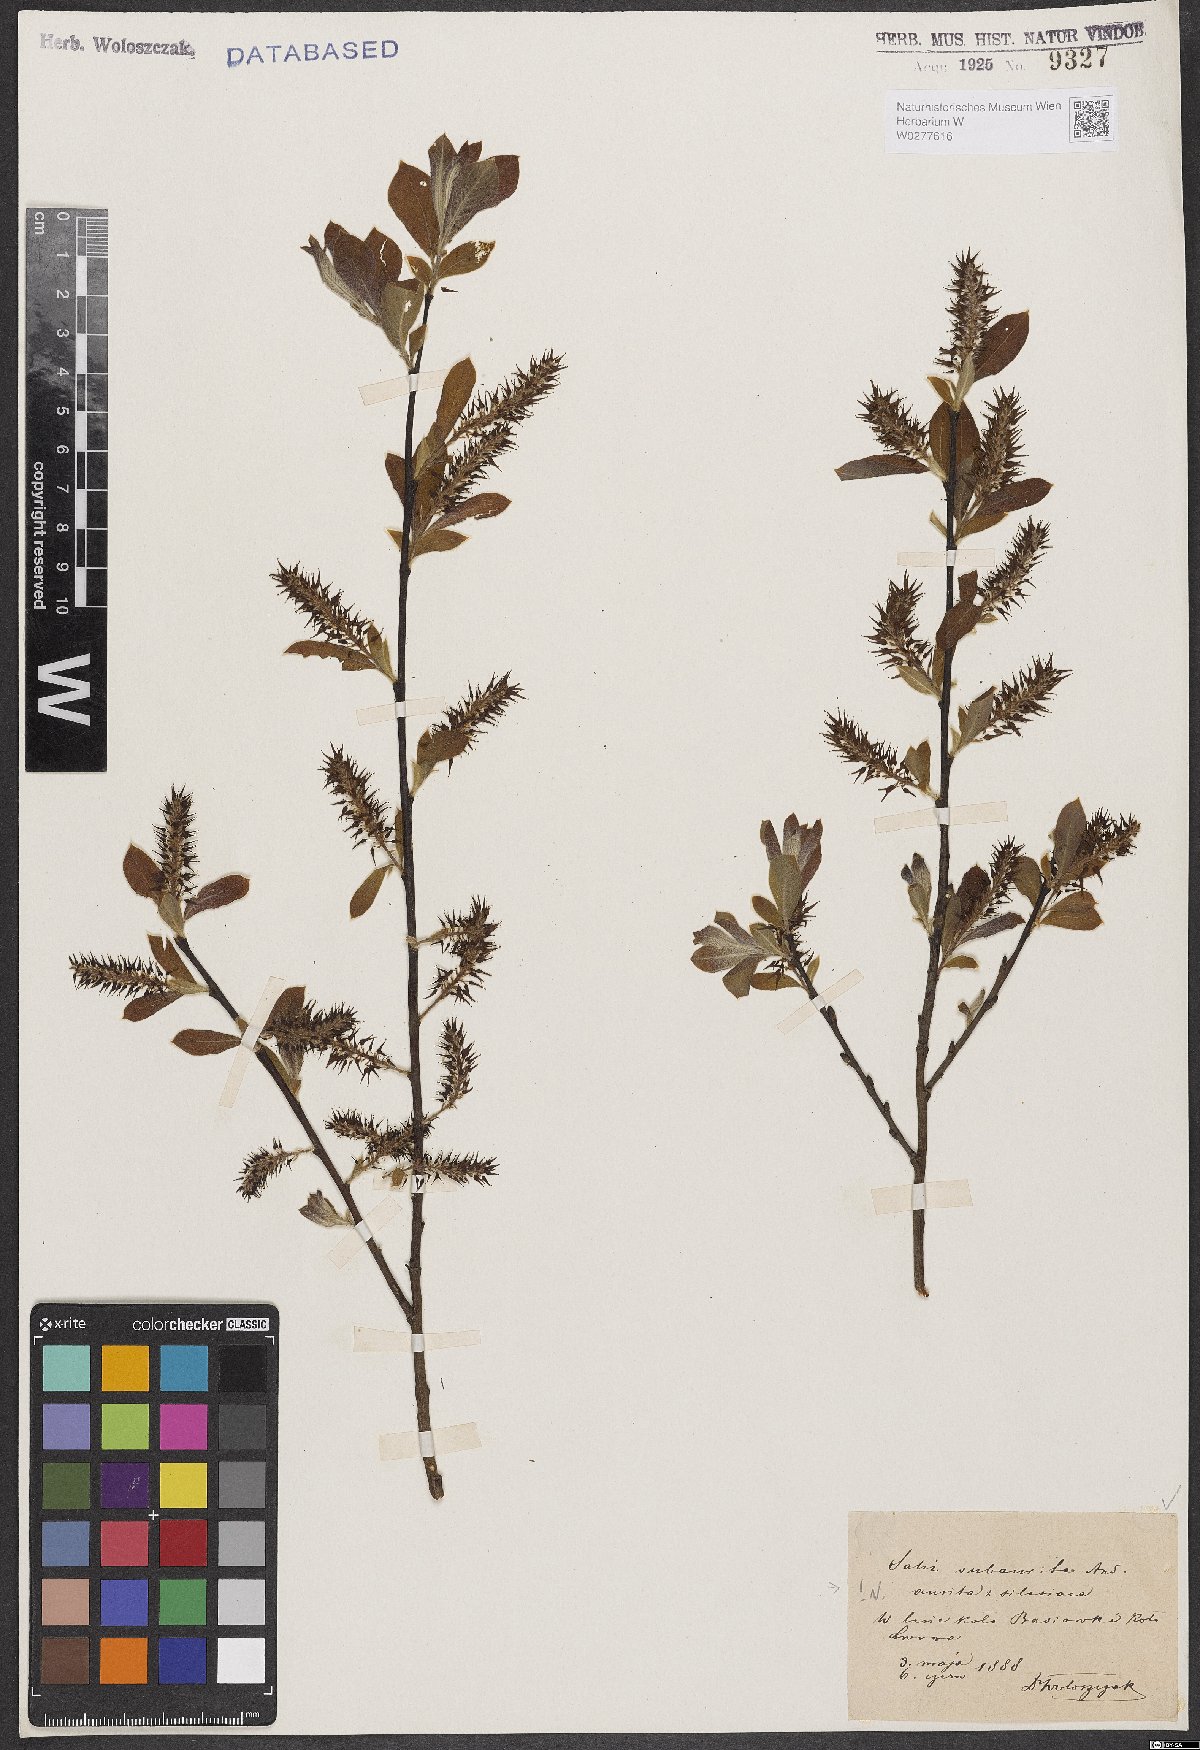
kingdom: Plantae
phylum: Tracheophyta
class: Magnoliopsida
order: Malpighiales
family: Salicaceae
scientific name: Salicaceae
